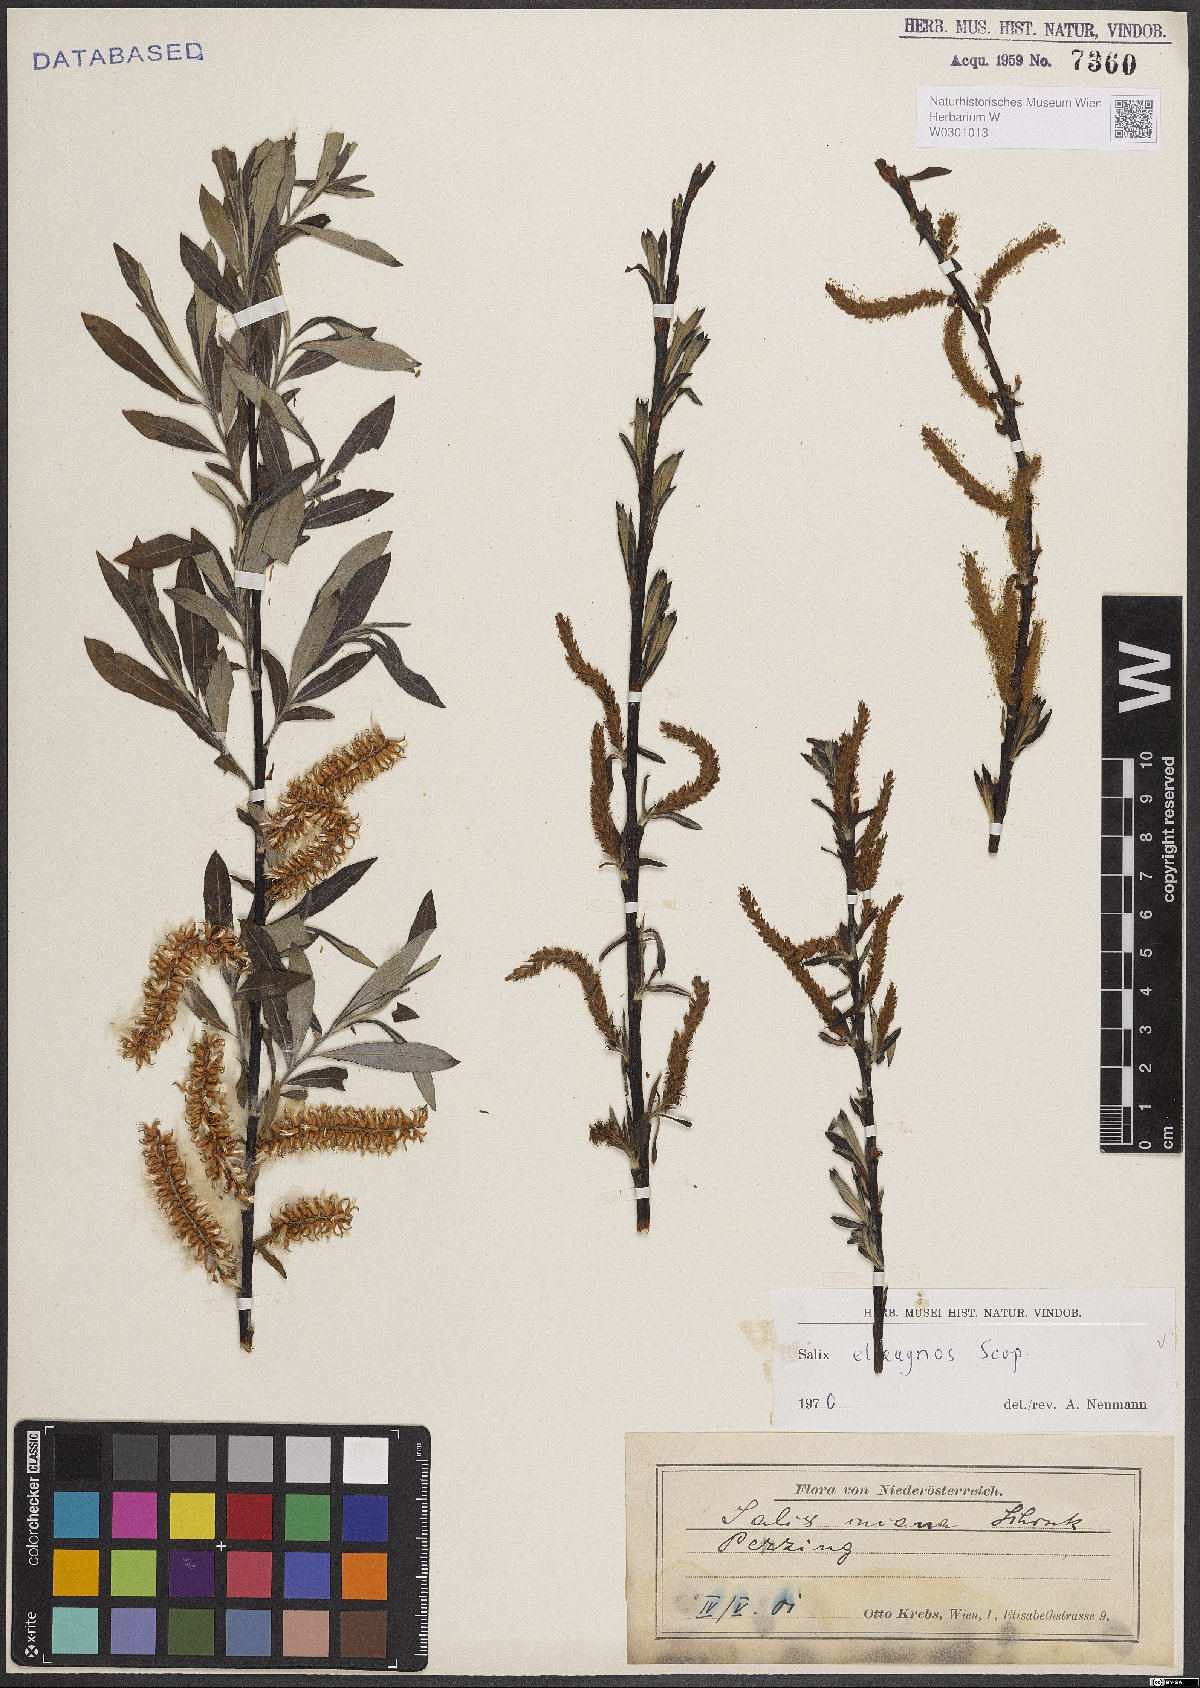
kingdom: Plantae
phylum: Tracheophyta
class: Magnoliopsida
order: Malpighiales
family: Salicaceae
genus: Salix
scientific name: Salix eleagnos
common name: Elaeagnus willow
